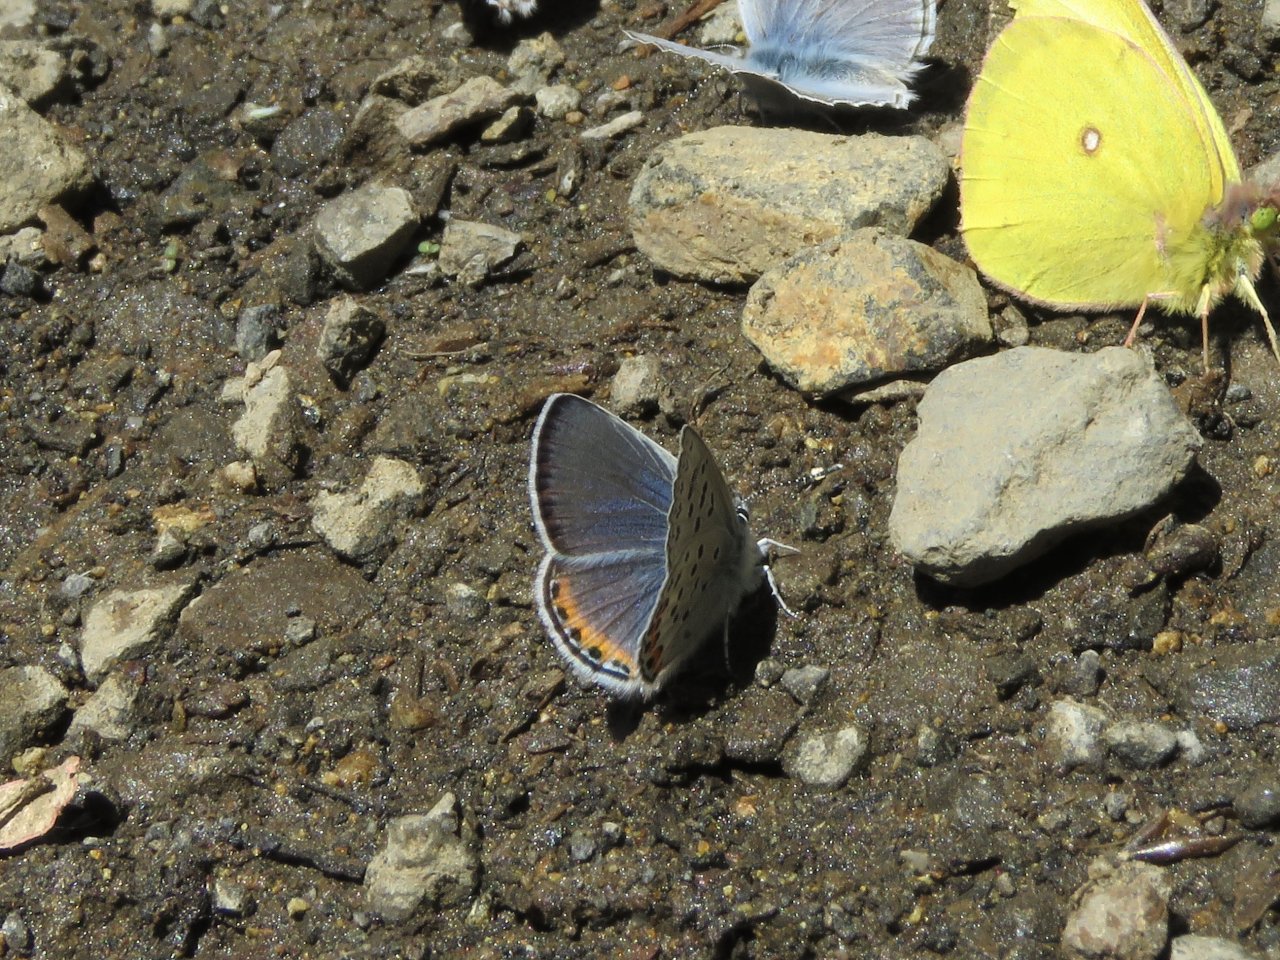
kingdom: Animalia
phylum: Arthropoda
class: Insecta
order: Lepidoptera
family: Lycaenidae
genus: Plebejus
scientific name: Plebejus acmon
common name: Acmon Blue
